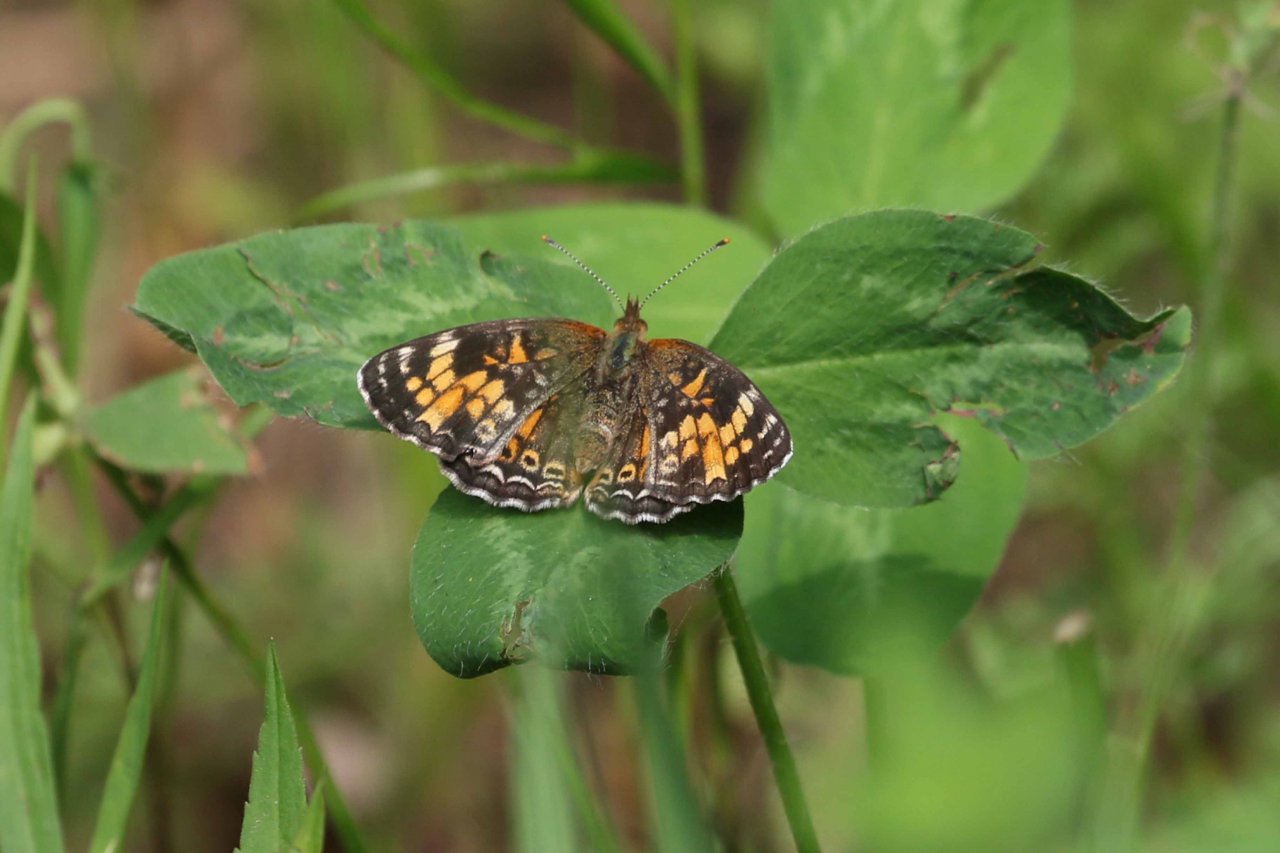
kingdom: Animalia
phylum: Arthropoda
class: Insecta
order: Lepidoptera
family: Nymphalidae
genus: Phyciodes
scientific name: Phyciodes tharos
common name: Pearl Crescent
